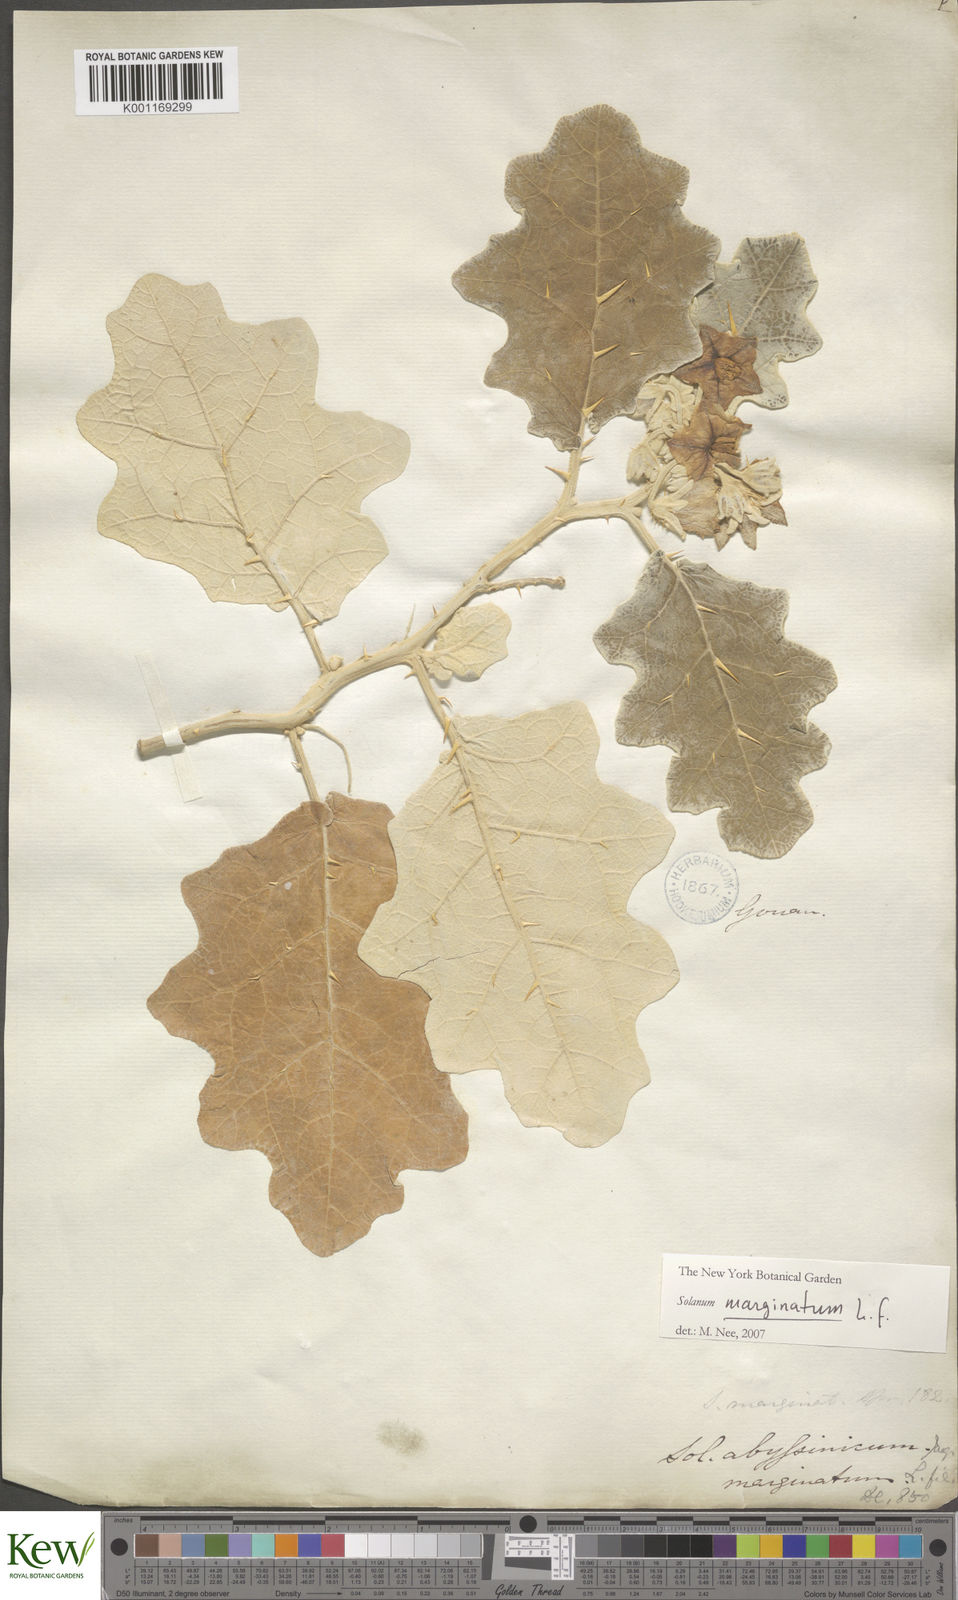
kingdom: Plantae
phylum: Tracheophyta
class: Magnoliopsida
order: Solanales
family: Solanaceae
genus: Solanum
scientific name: Solanum marginatum
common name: Purple african nightshade
